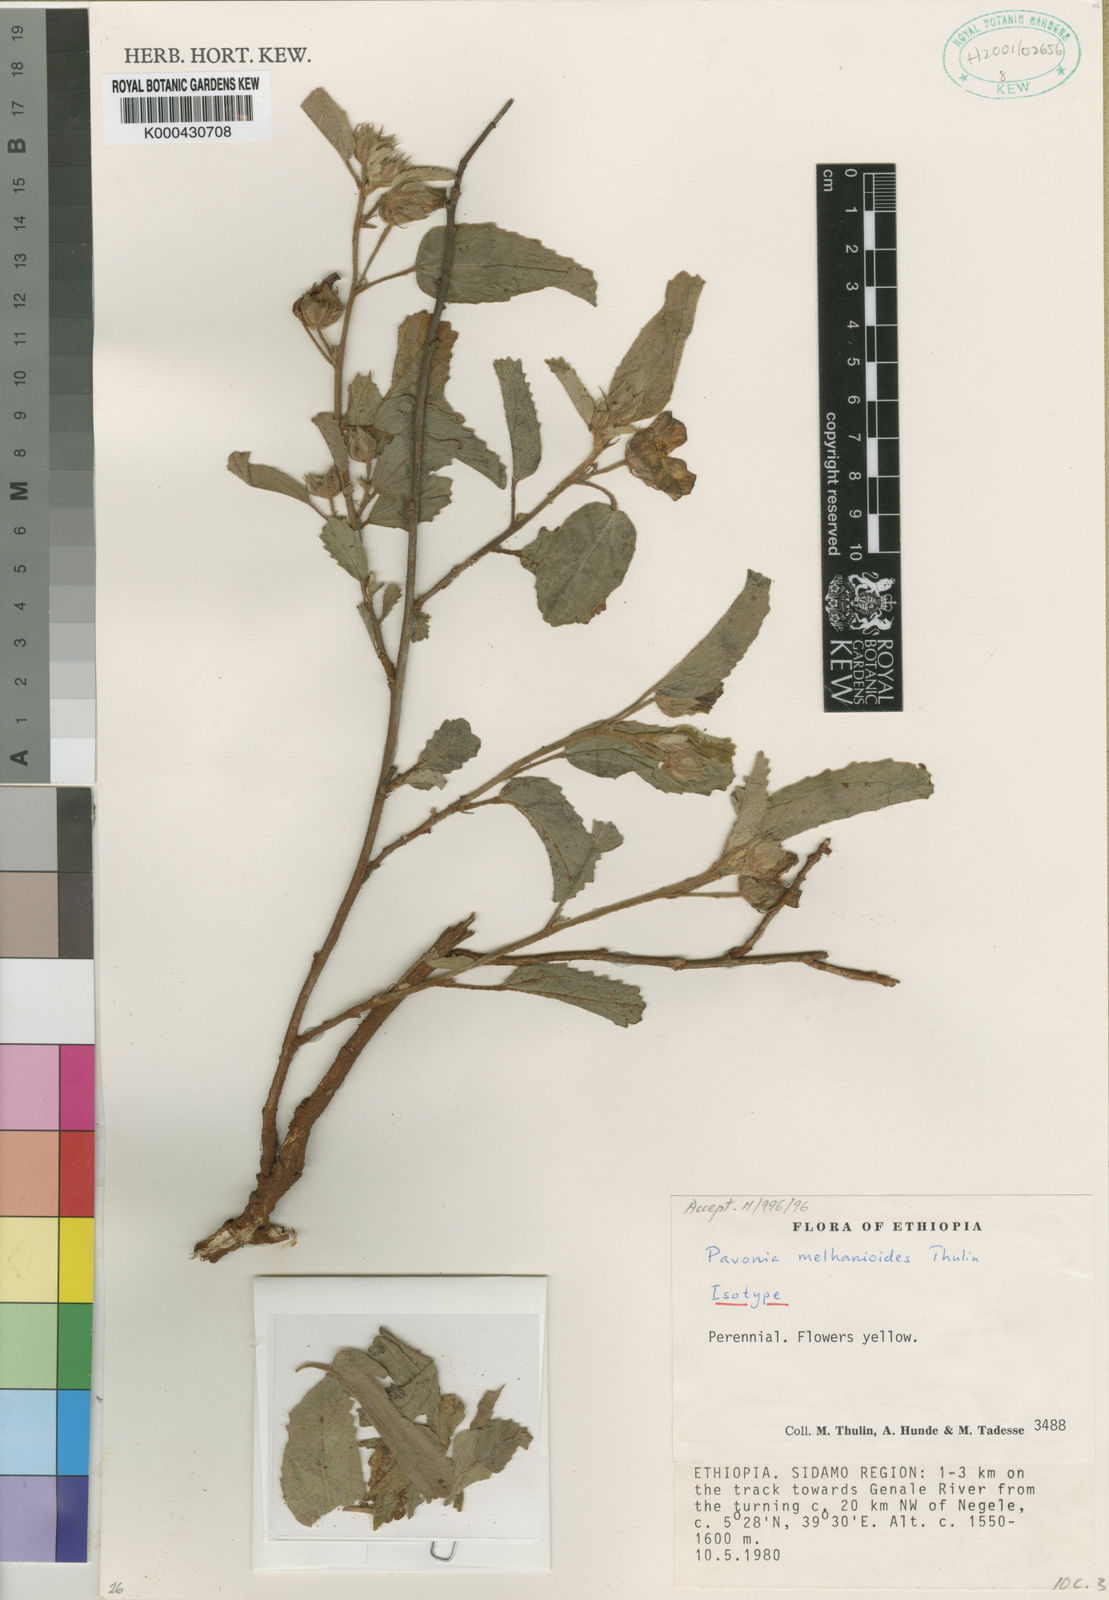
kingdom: Plantae
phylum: Tracheophyta
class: Magnoliopsida
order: Malvales
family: Malvaceae
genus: Pavonia
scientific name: Pavonia melhanioides
